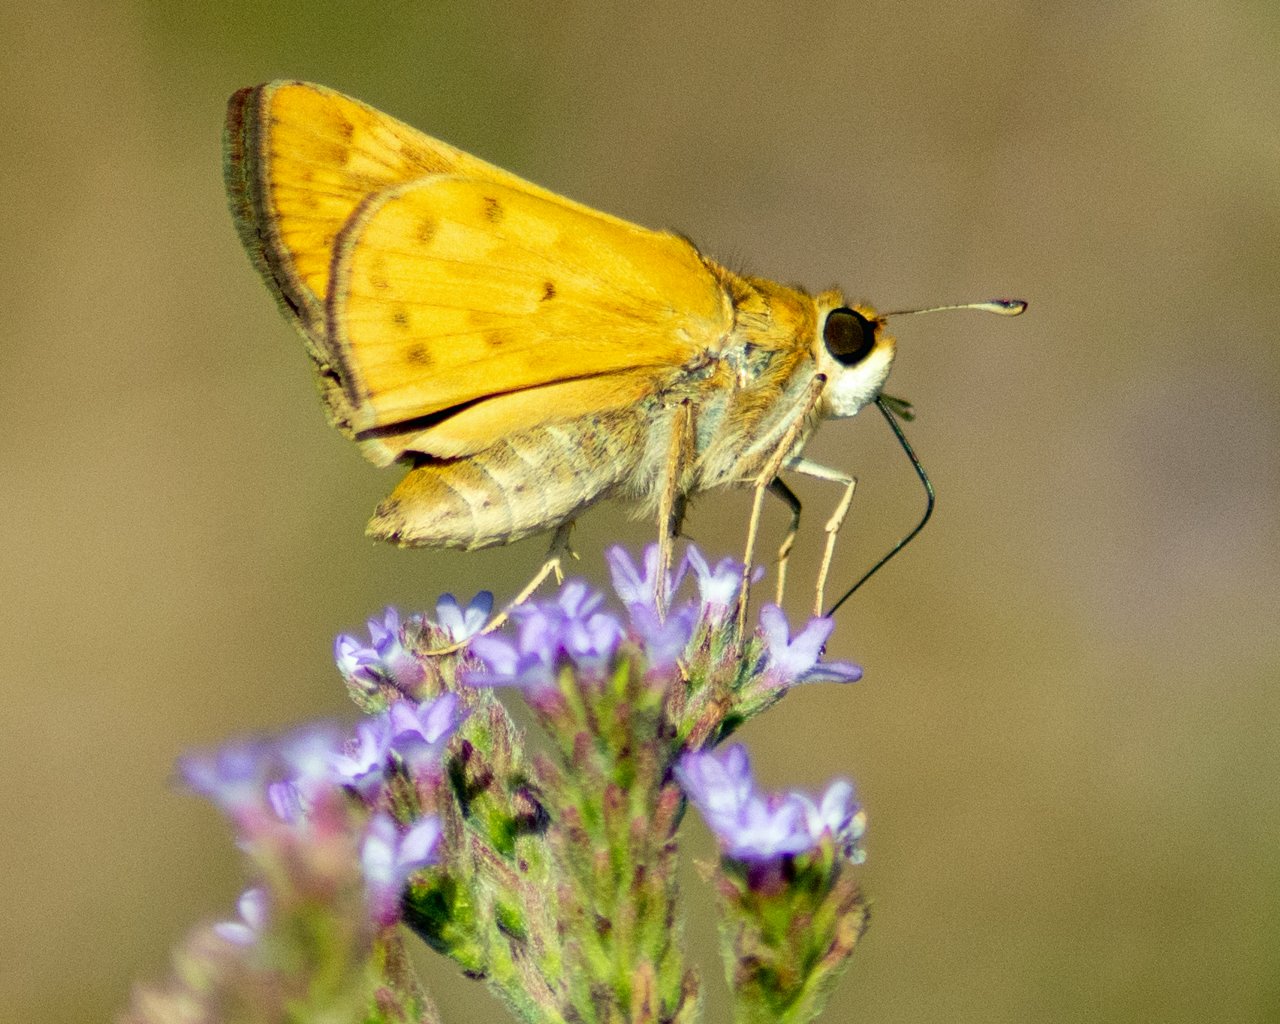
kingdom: Animalia
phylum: Arthropoda
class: Insecta
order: Lepidoptera
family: Hesperiidae
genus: Hylephila
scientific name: Hylephila phyleus
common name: Fiery Skipper
